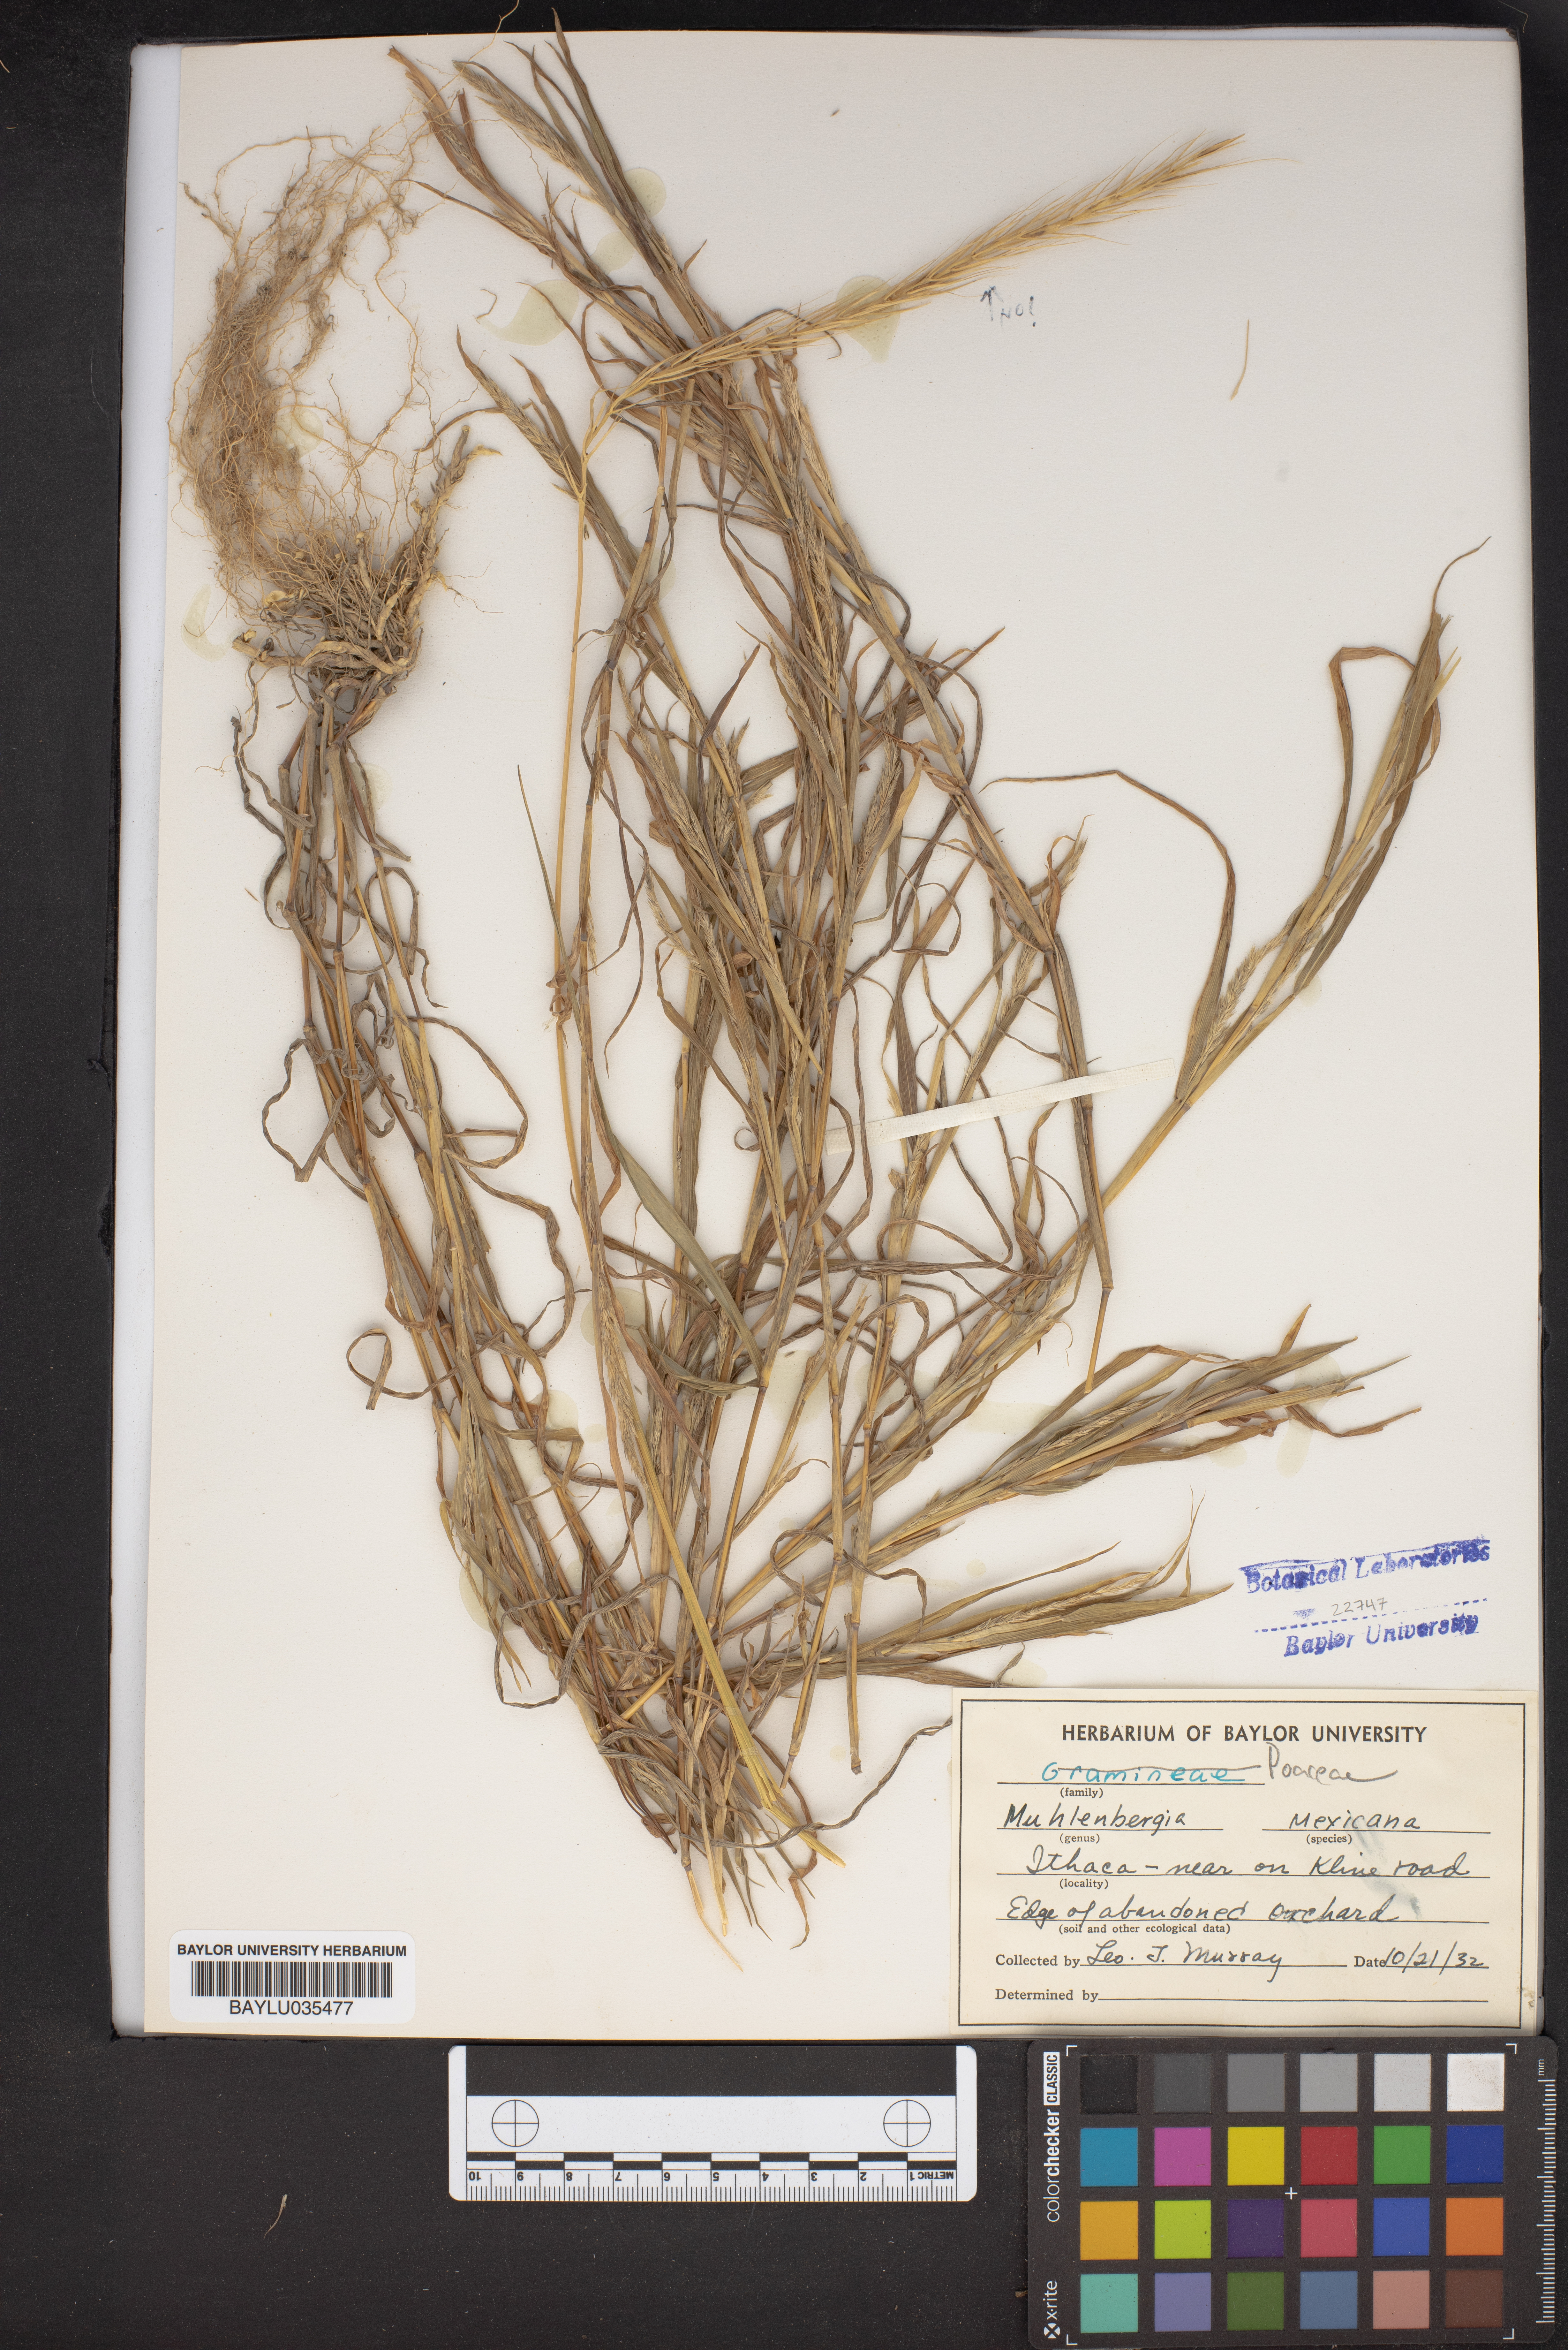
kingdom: Plantae
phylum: Tracheophyta
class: Liliopsida
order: Poales
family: Poaceae
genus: Muhlenbergia
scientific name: Muhlenbergia mexicana
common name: Mexican muhly
